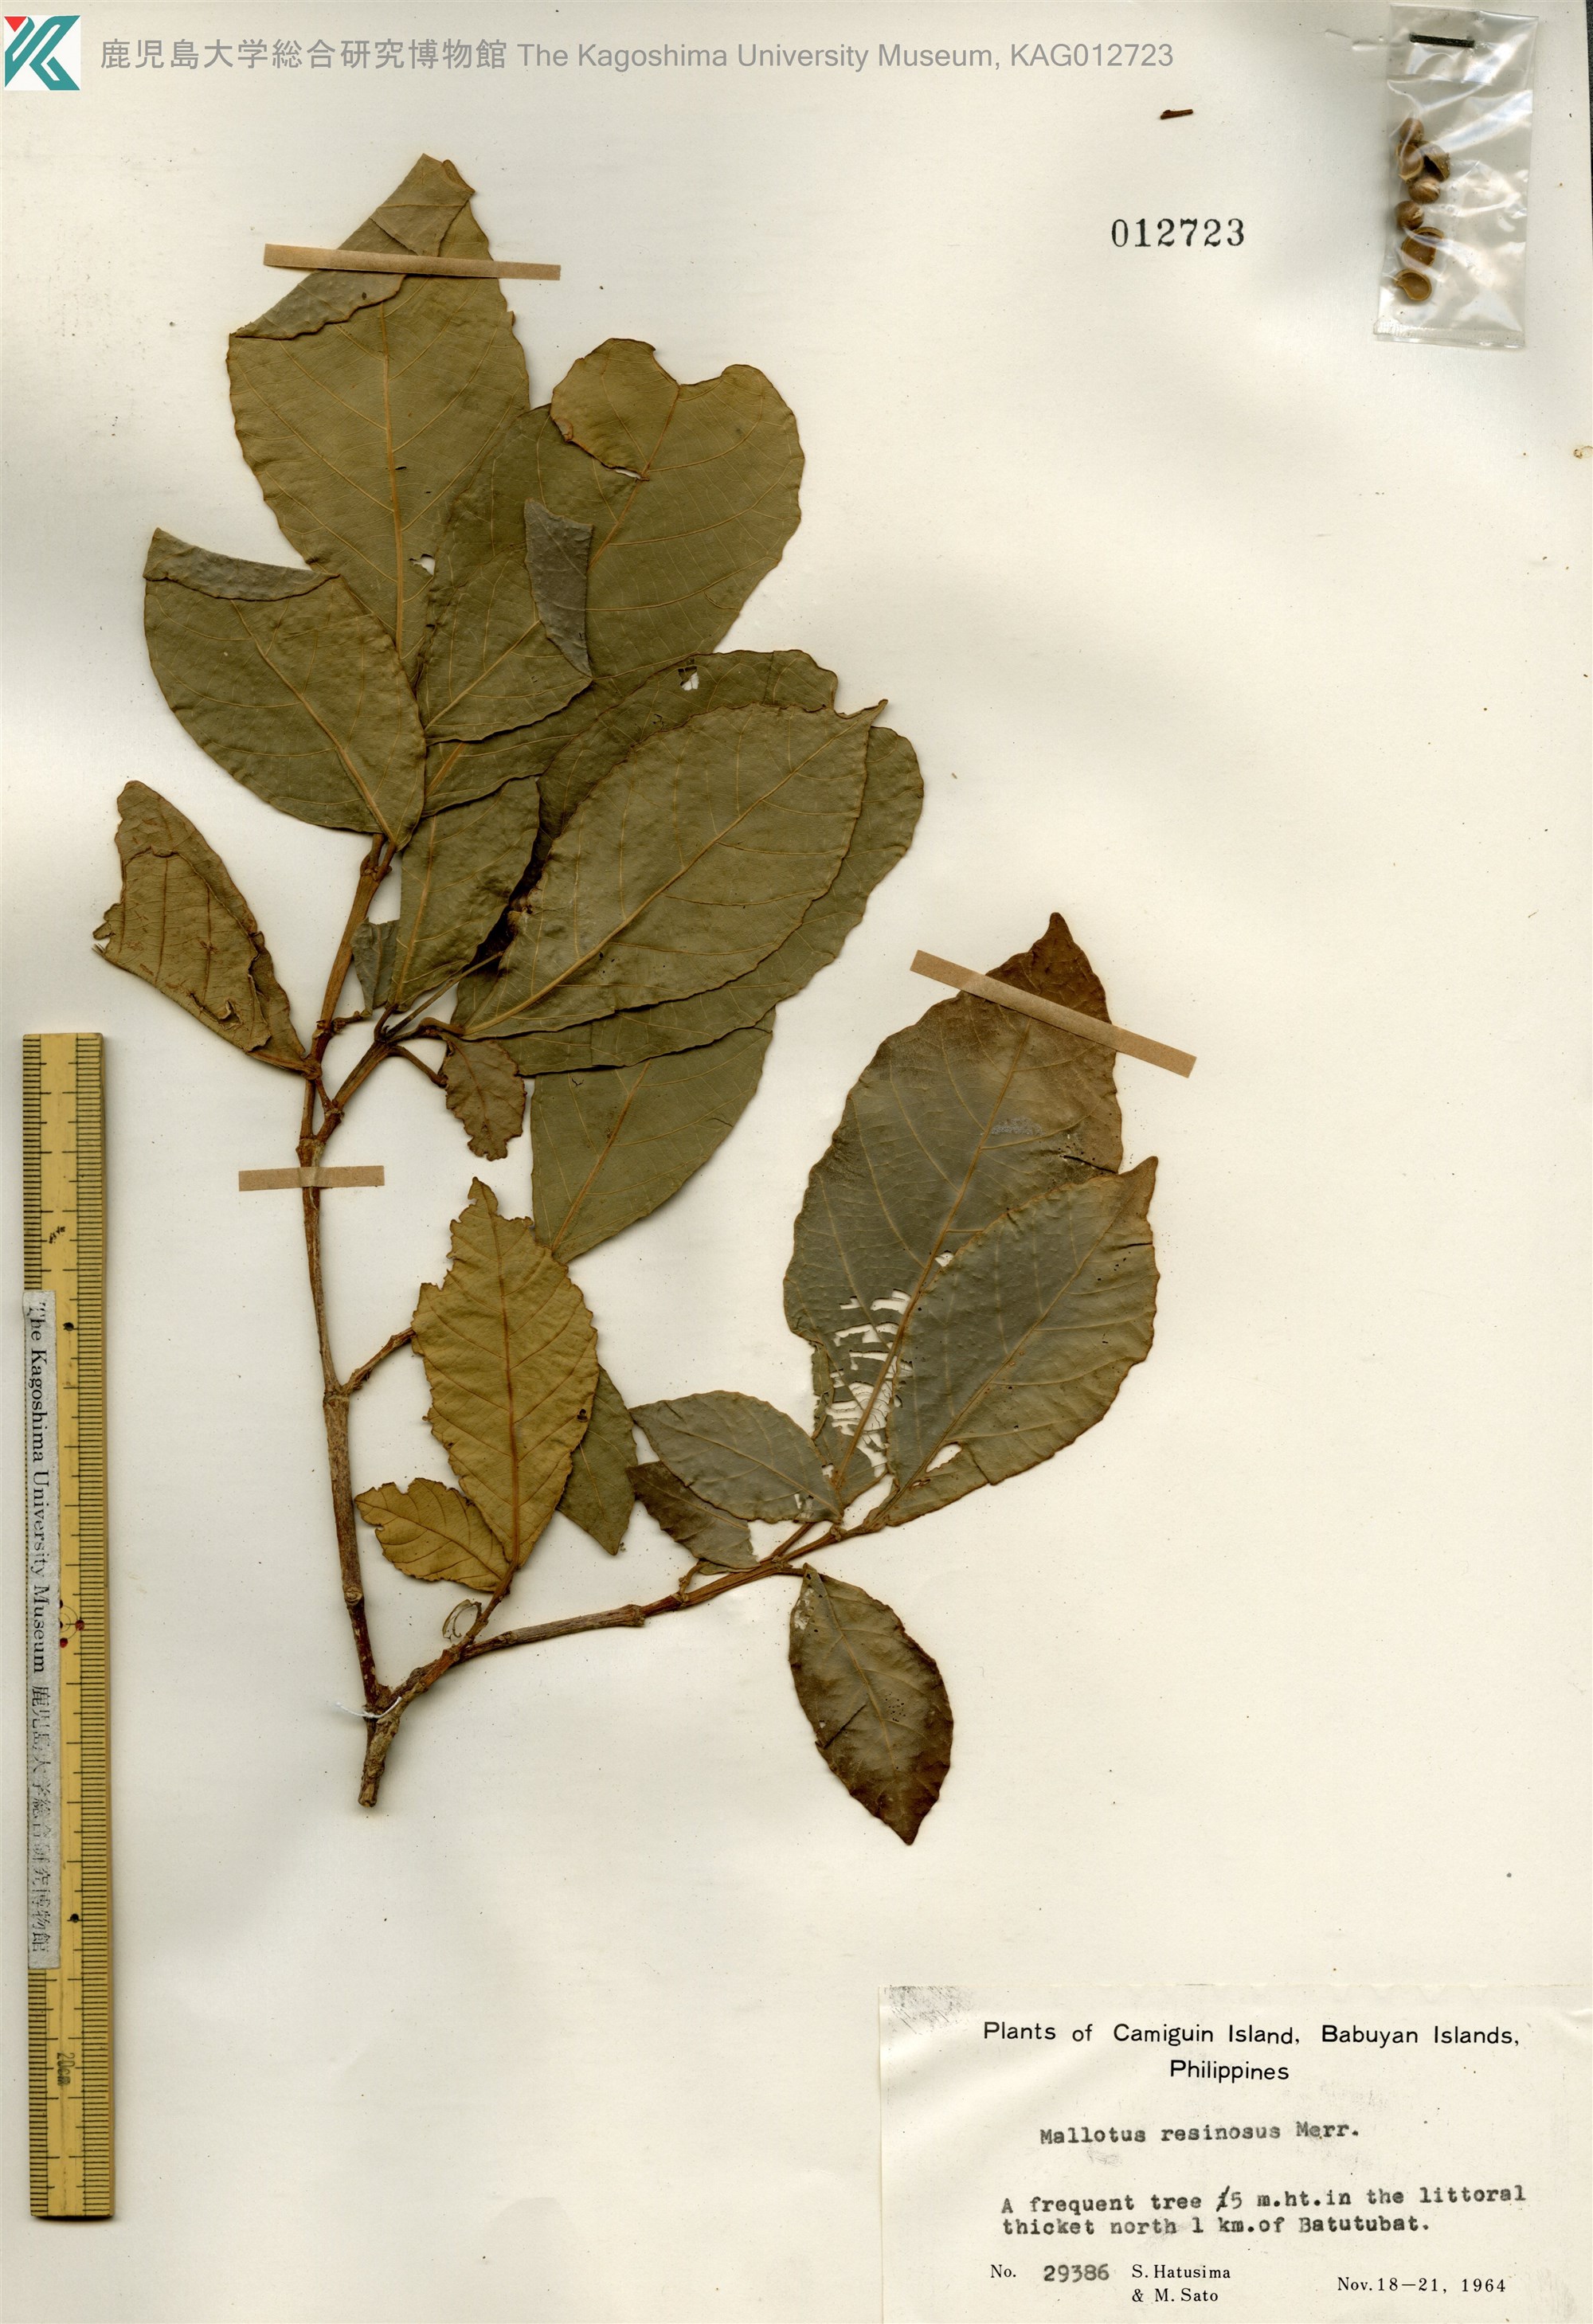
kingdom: Plantae
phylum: Tracheophyta
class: Magnoliopsida
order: Malpighiales
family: Euphorbiaceae
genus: Mallotus
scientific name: Mallotus resinosus
